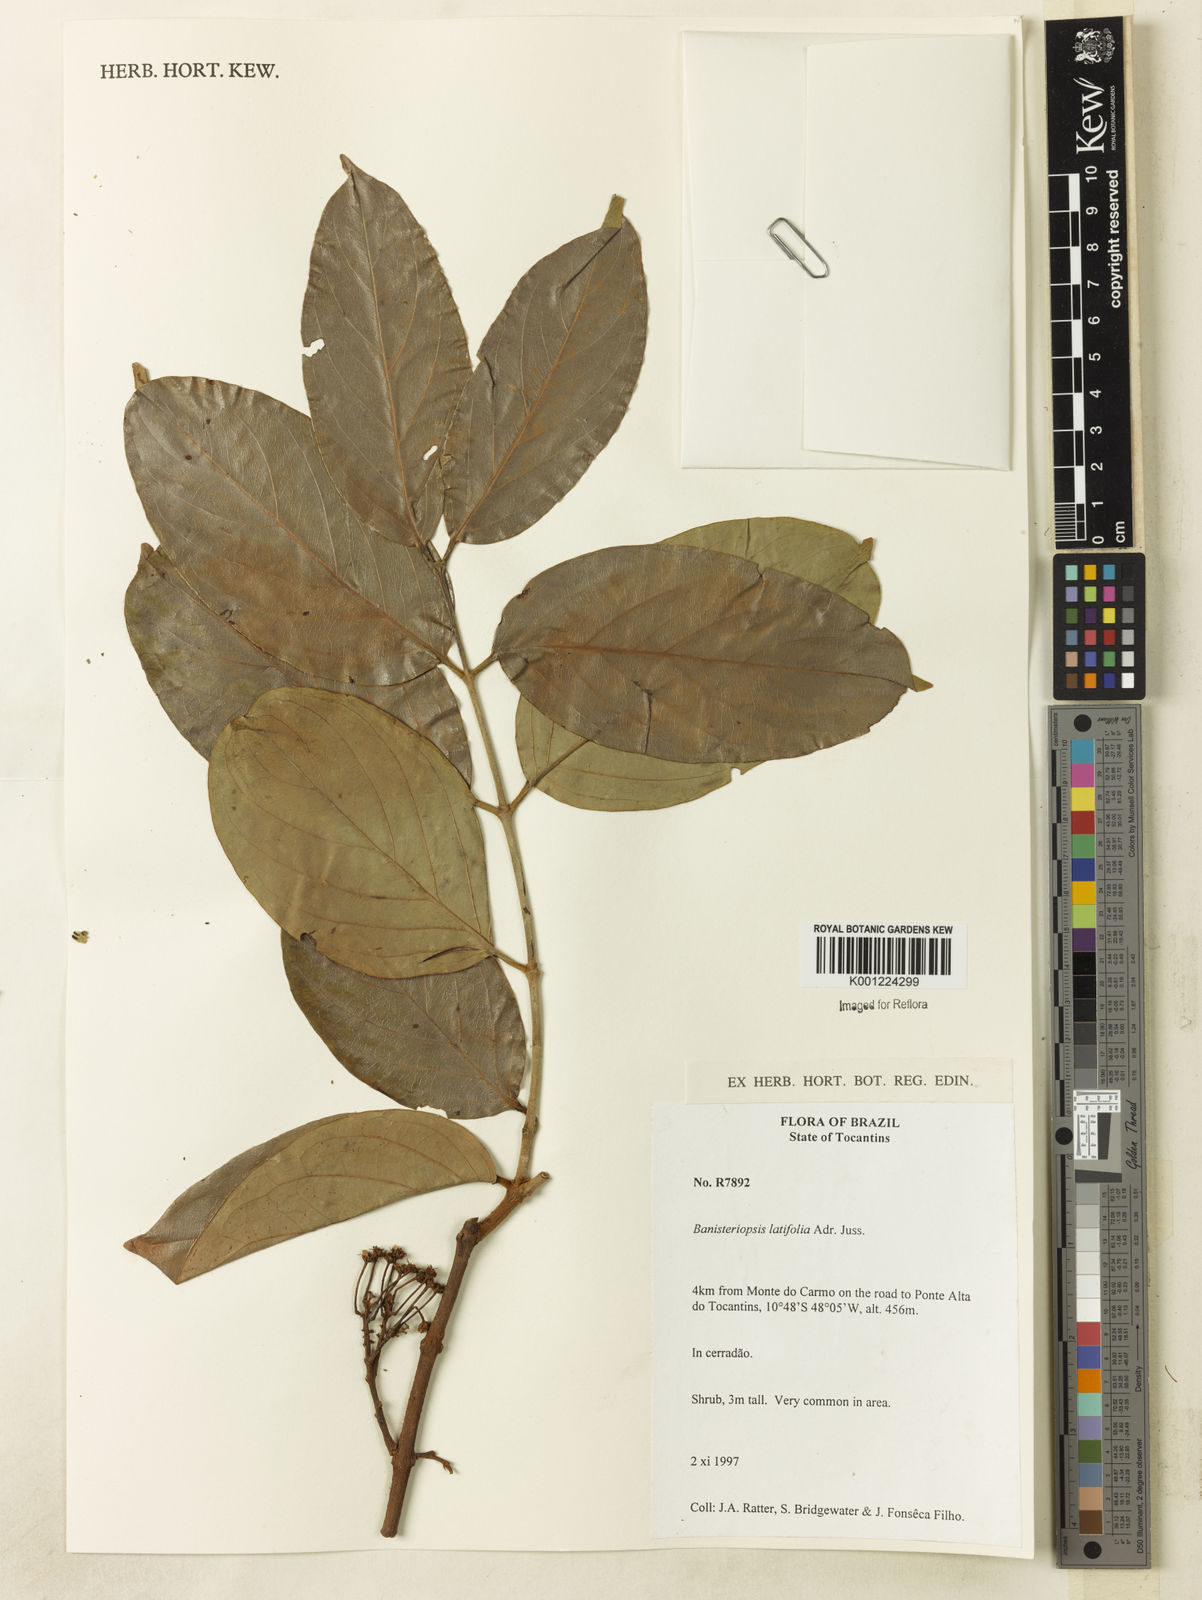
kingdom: Plantae
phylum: Tracheophyta
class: Magnoliopsida
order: Malpighiales
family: Malpighiaceae
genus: Banisteriopsis
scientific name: Banisteriopsis latifolia
